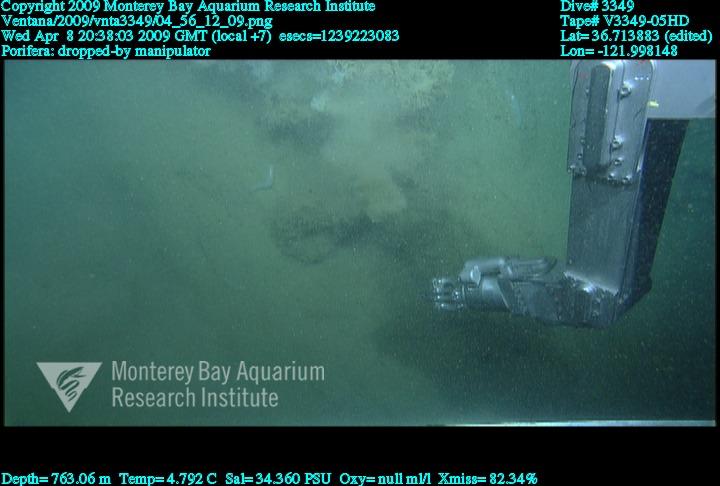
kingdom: Animalia
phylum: Porifera
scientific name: Porifera
